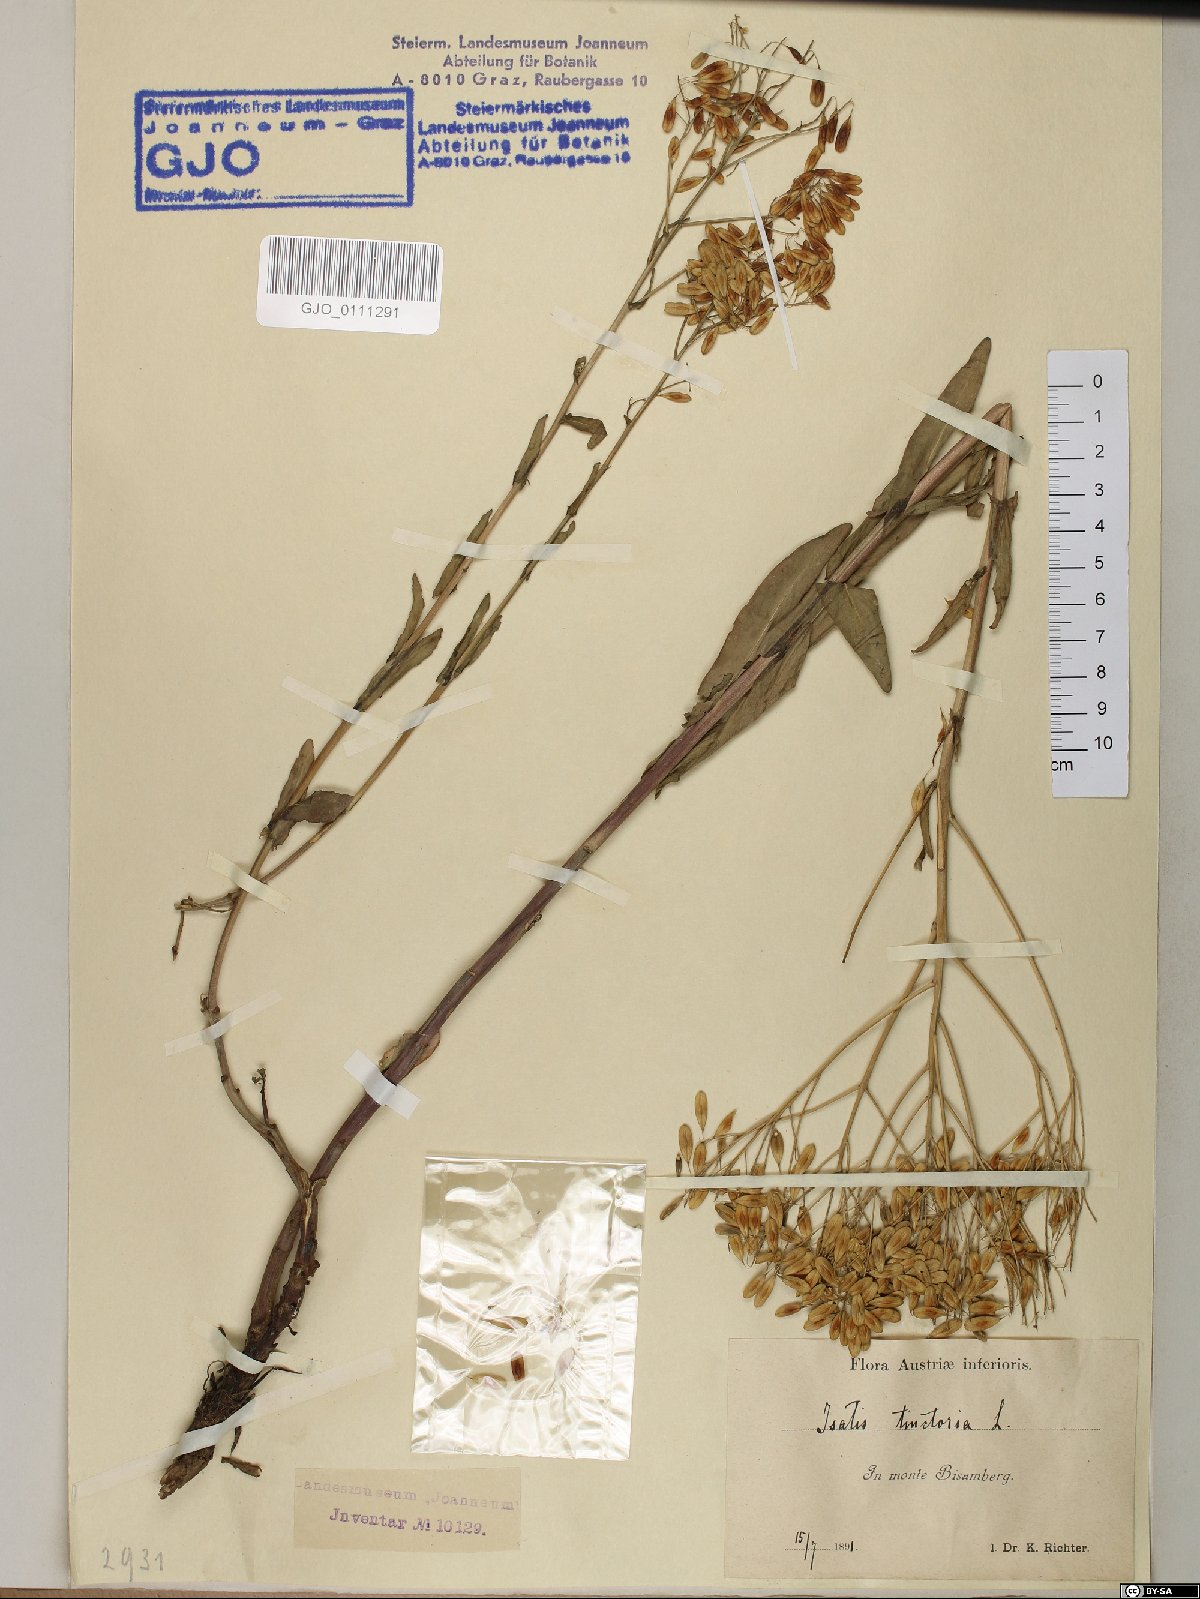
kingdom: Plantae
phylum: Tracheophyta
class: Magnoliopsida
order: Brassicales
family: Brassicaceae
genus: Isatis
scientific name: Isatis tinctoria
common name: Woad
